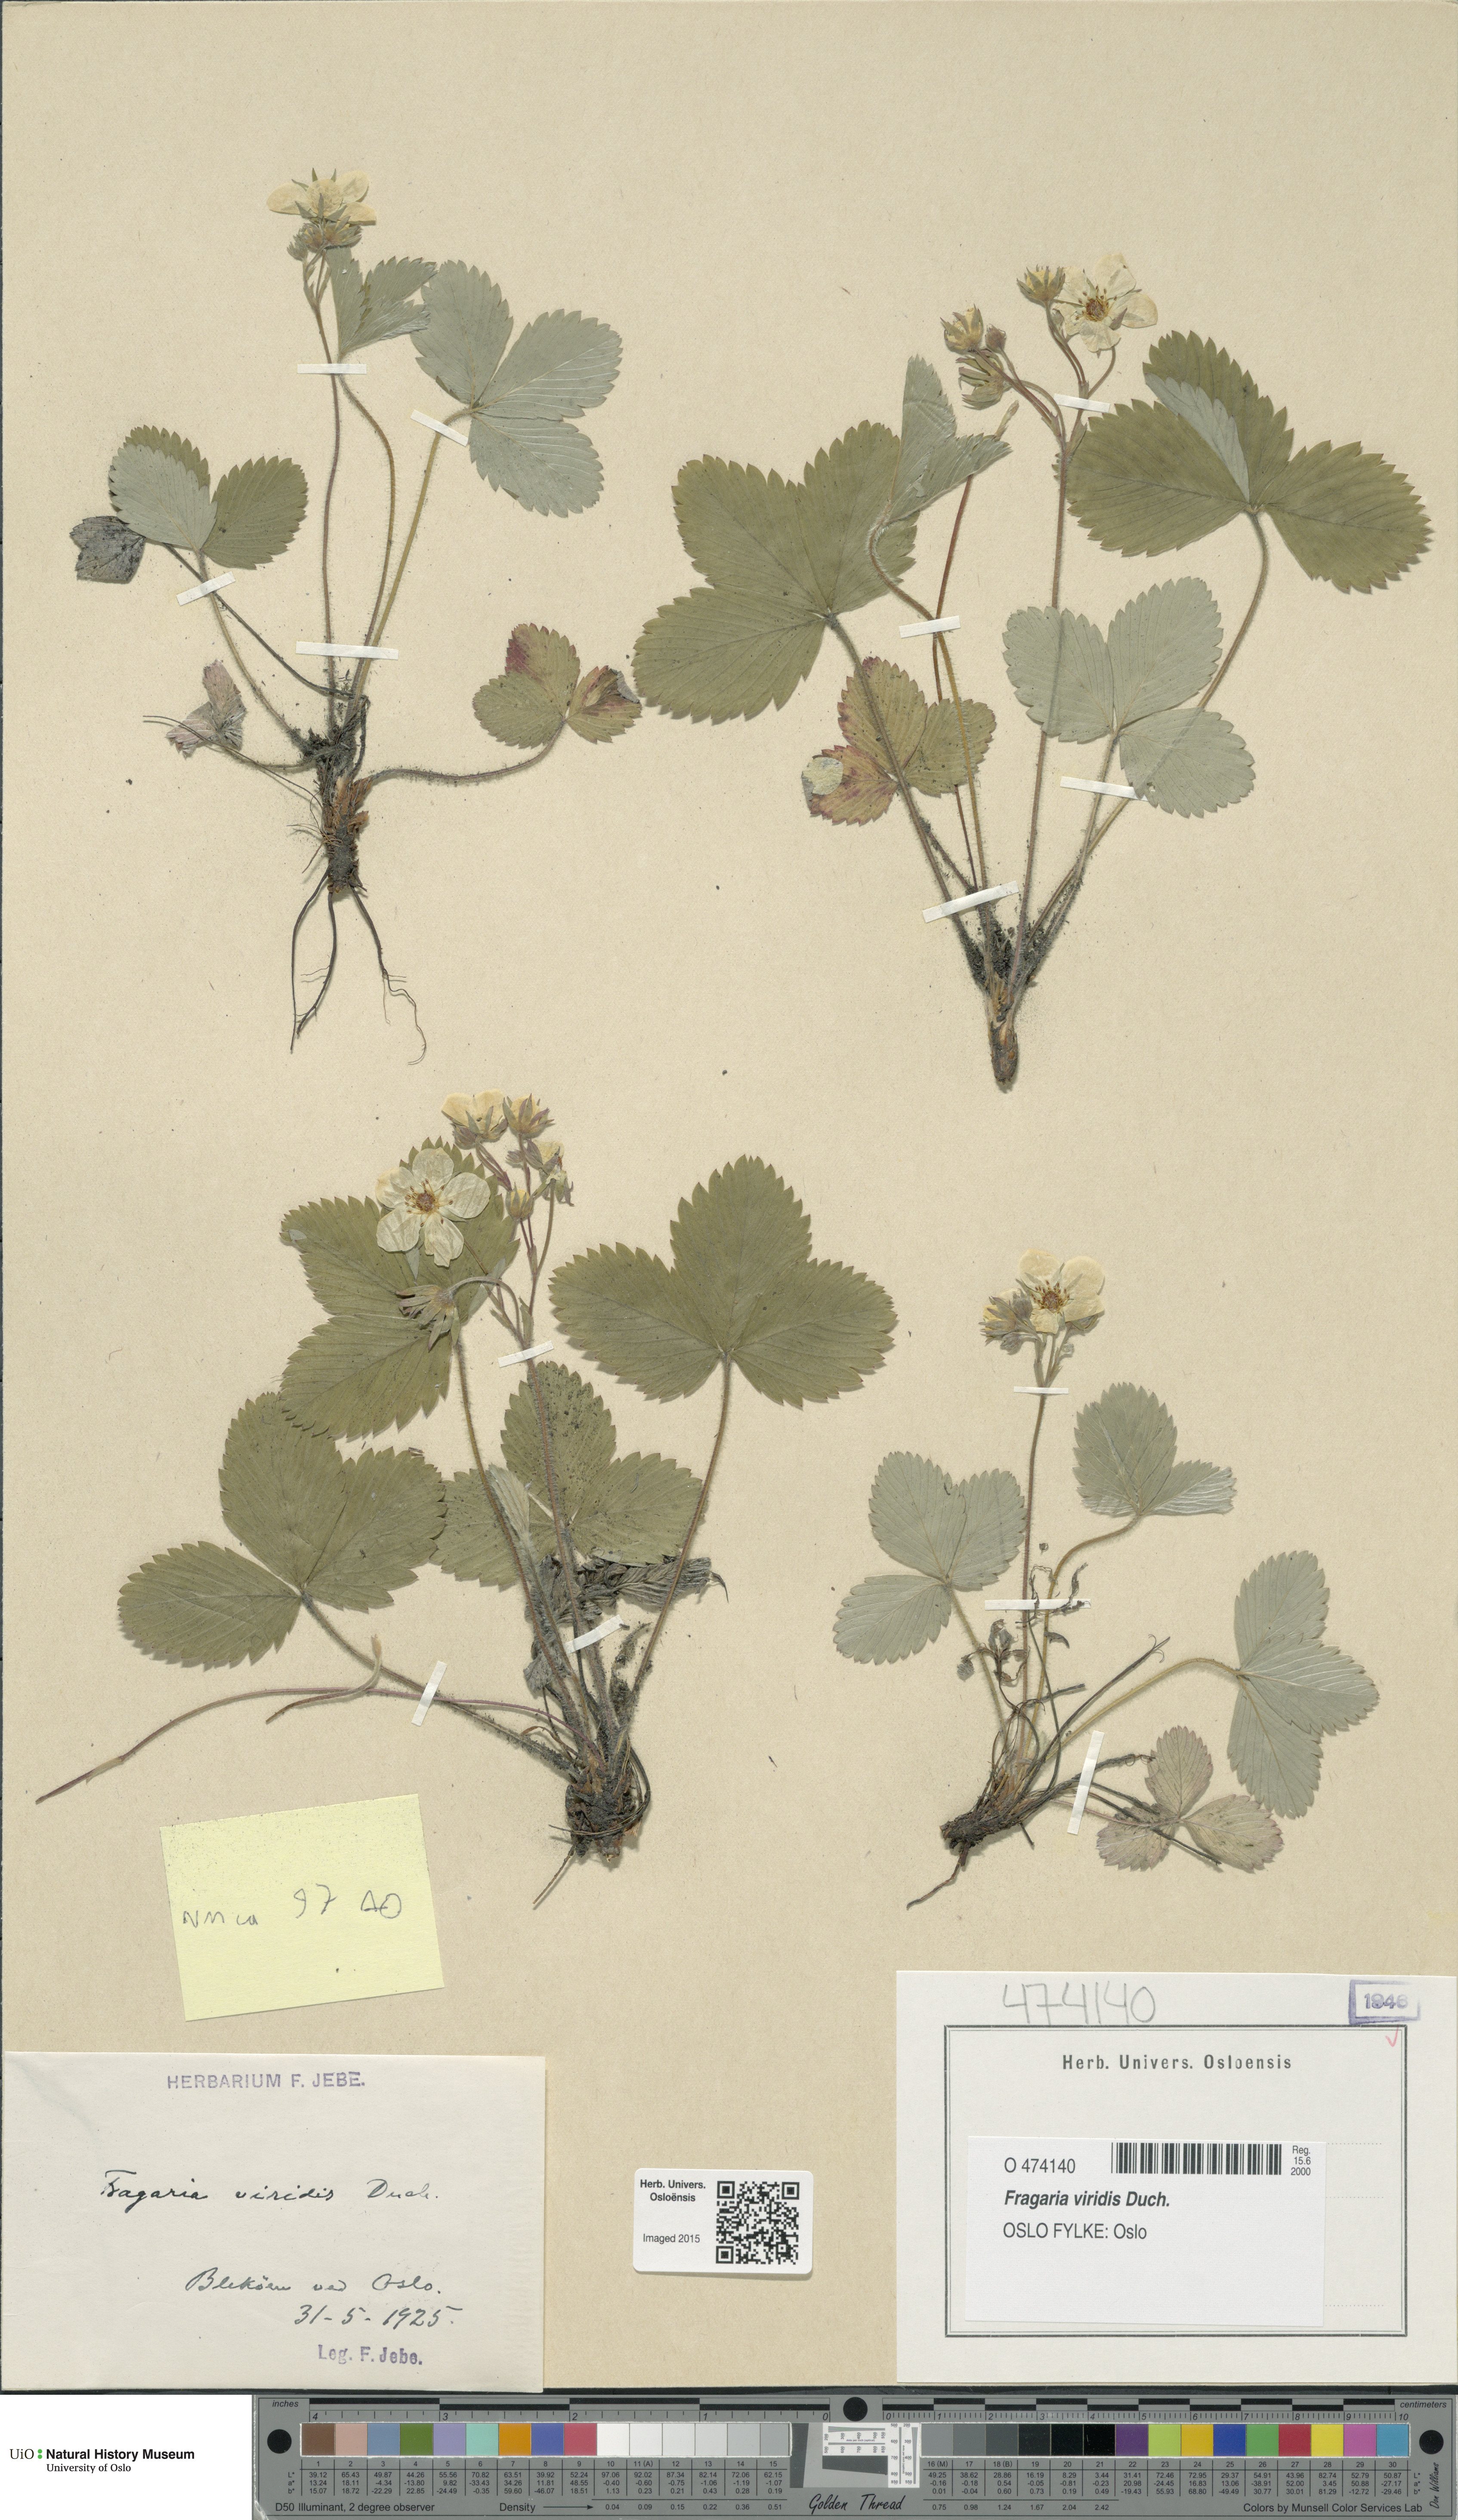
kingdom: Plantae
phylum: Tracheophyta
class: Magnoliopsida
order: Rosales
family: Rosaceae
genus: Fragaria
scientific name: Fragaria viridis
